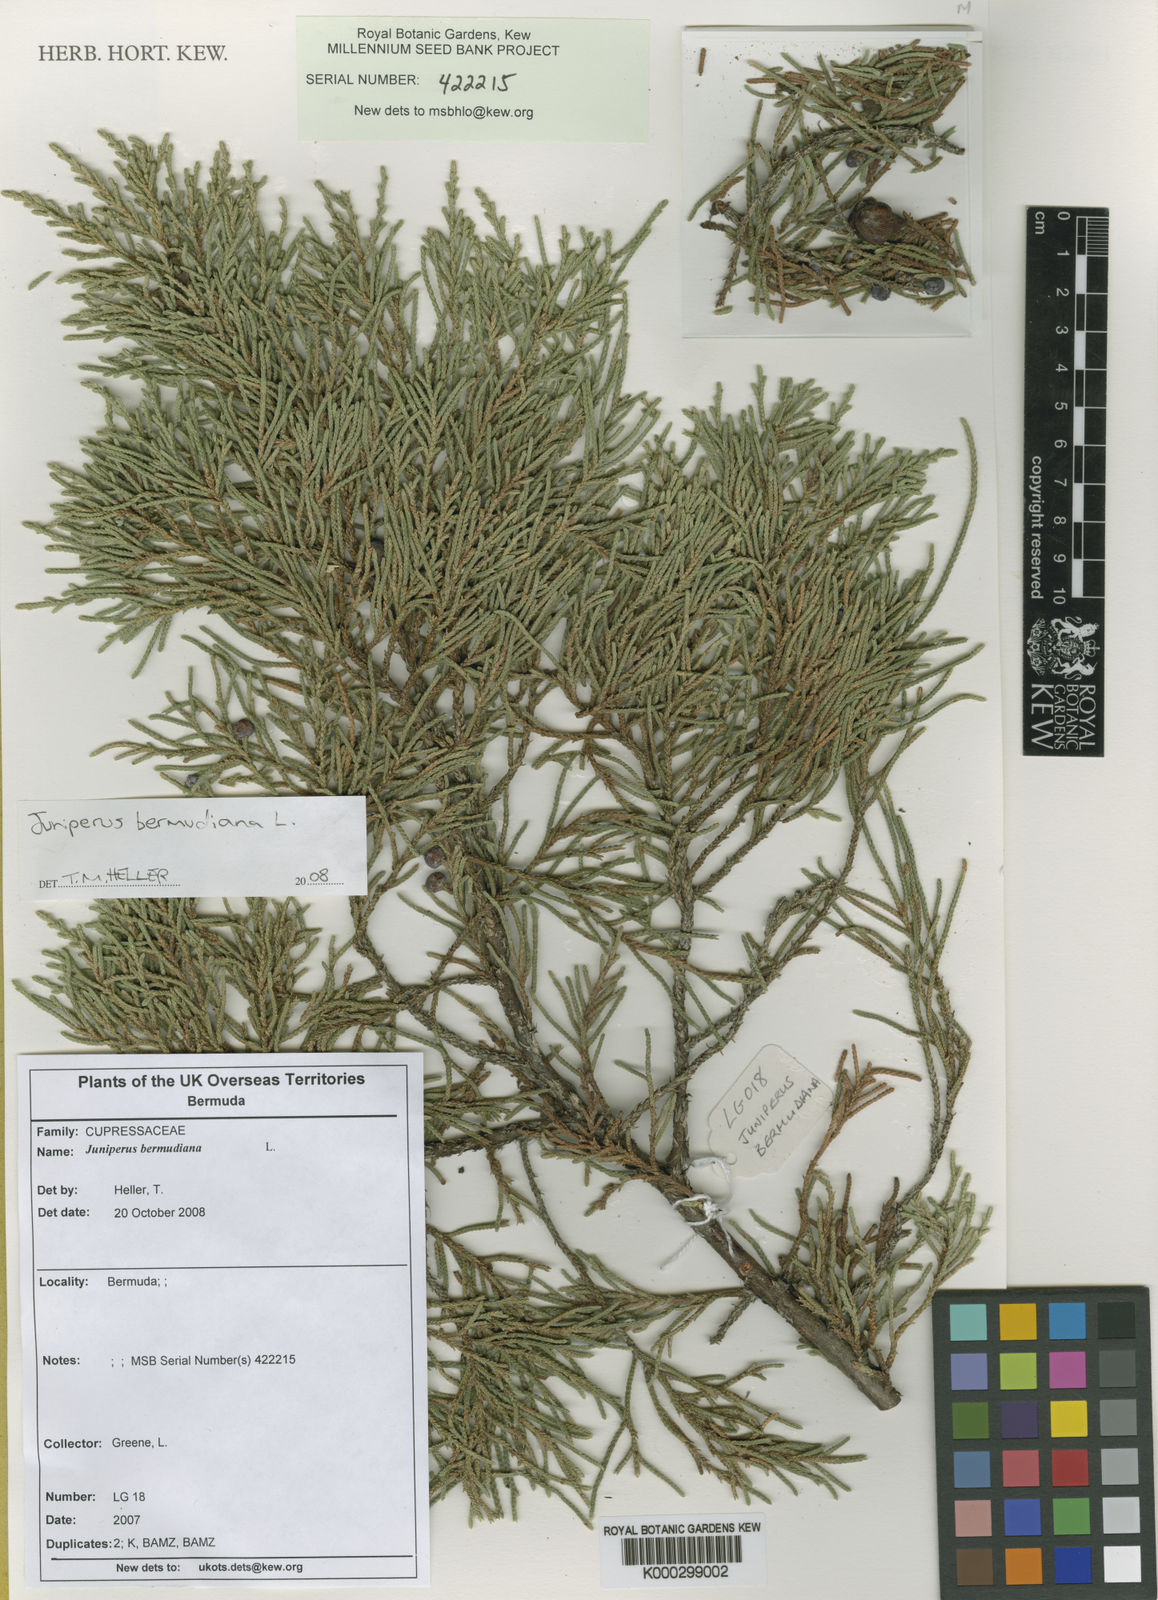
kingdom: Plantae
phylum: Tracheophyta
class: Pinopsida
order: Pinales
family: Cupressaceae
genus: Juniperus
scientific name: Juniperus bermudiana
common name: Bermuda juniper
